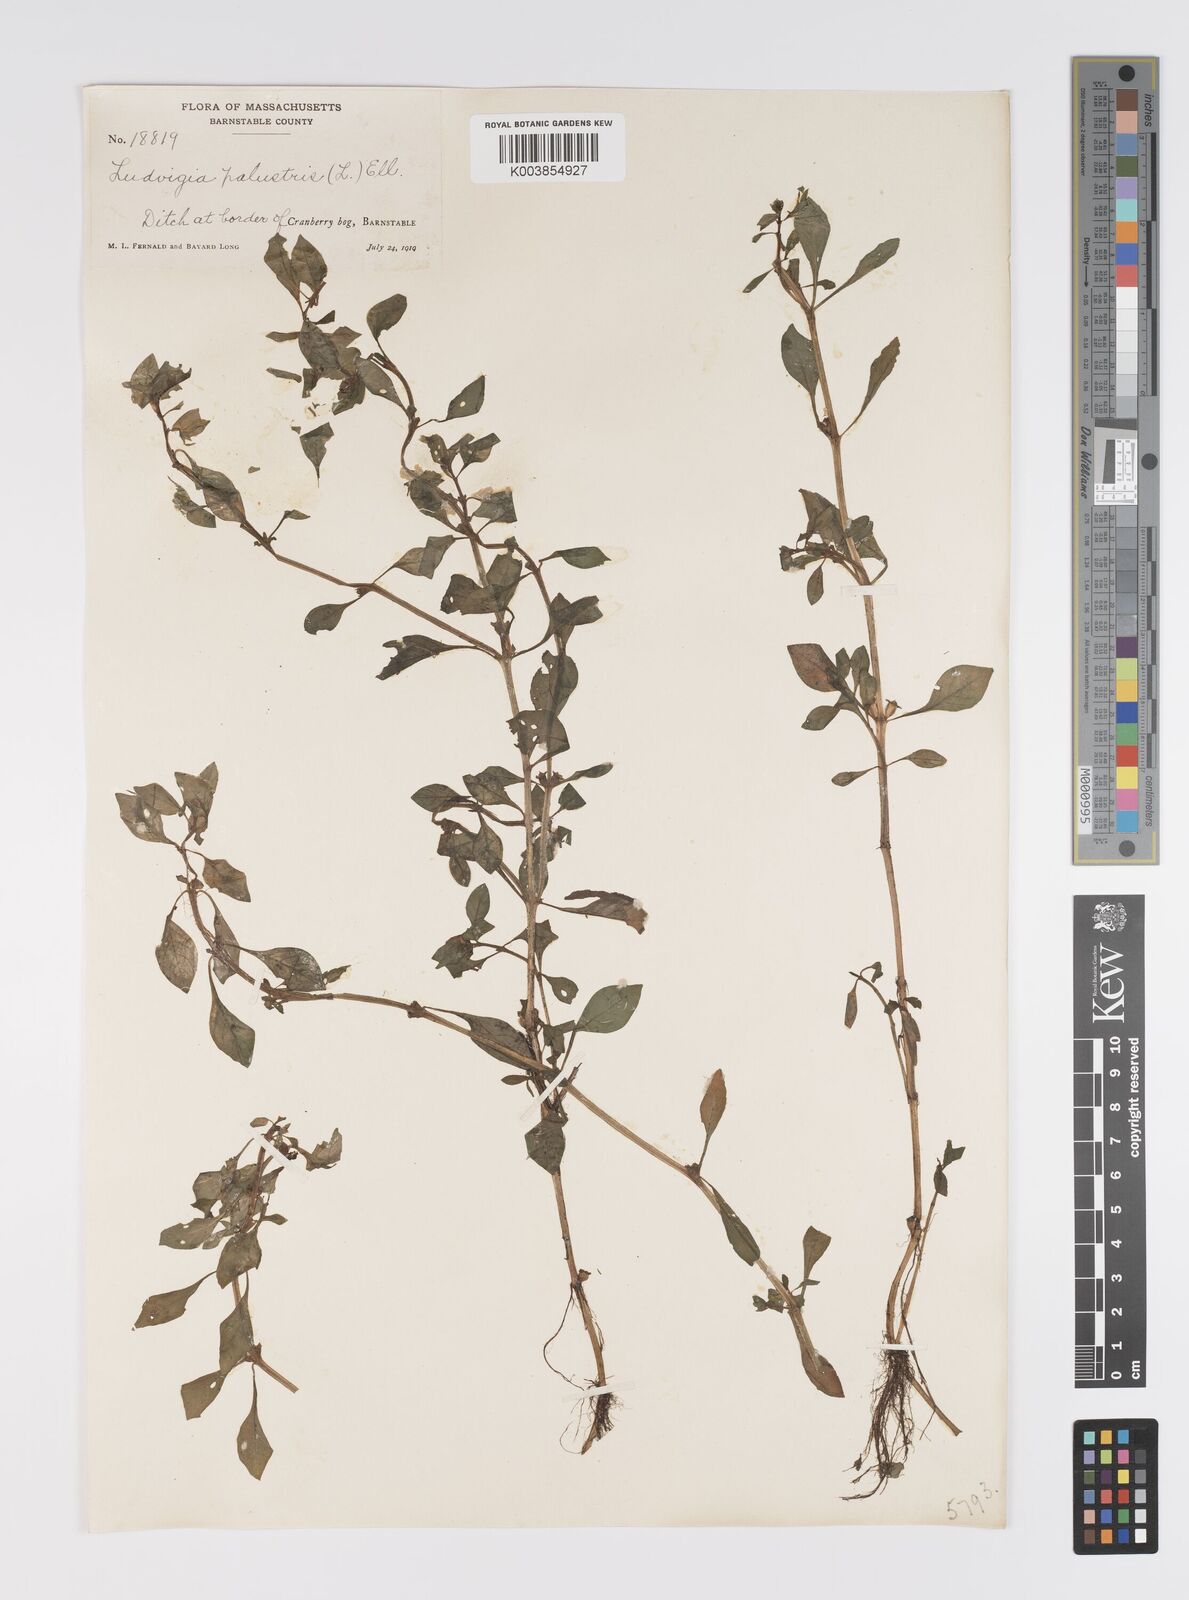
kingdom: Plantae
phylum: Tracheophyta
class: Magnoliopsida
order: Myrtales
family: Onagraceae
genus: Ludwigia
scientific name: Ludwigia palustris
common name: Hampshire-purslane
